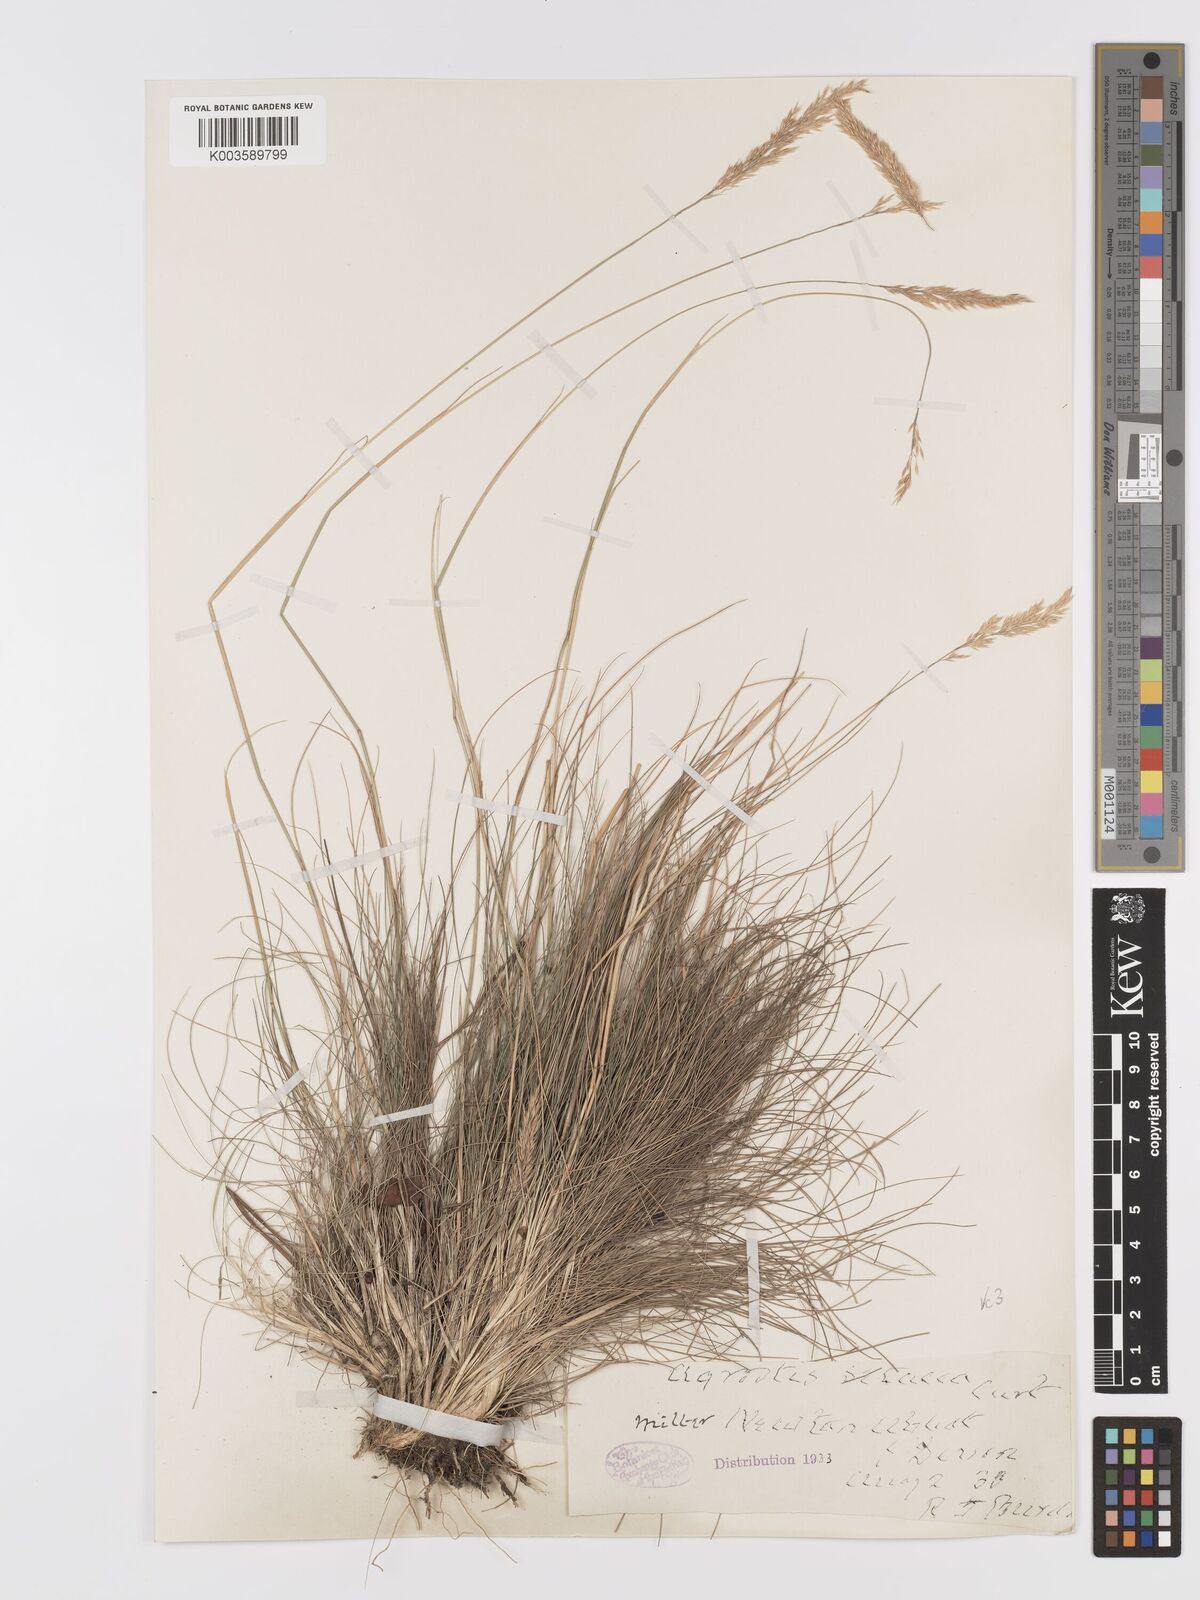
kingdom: Plantae
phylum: Tracheophyta
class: Liliopsida
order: Poales
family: Poaceae
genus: Alpagrostis
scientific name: Alpagrostis setacea
